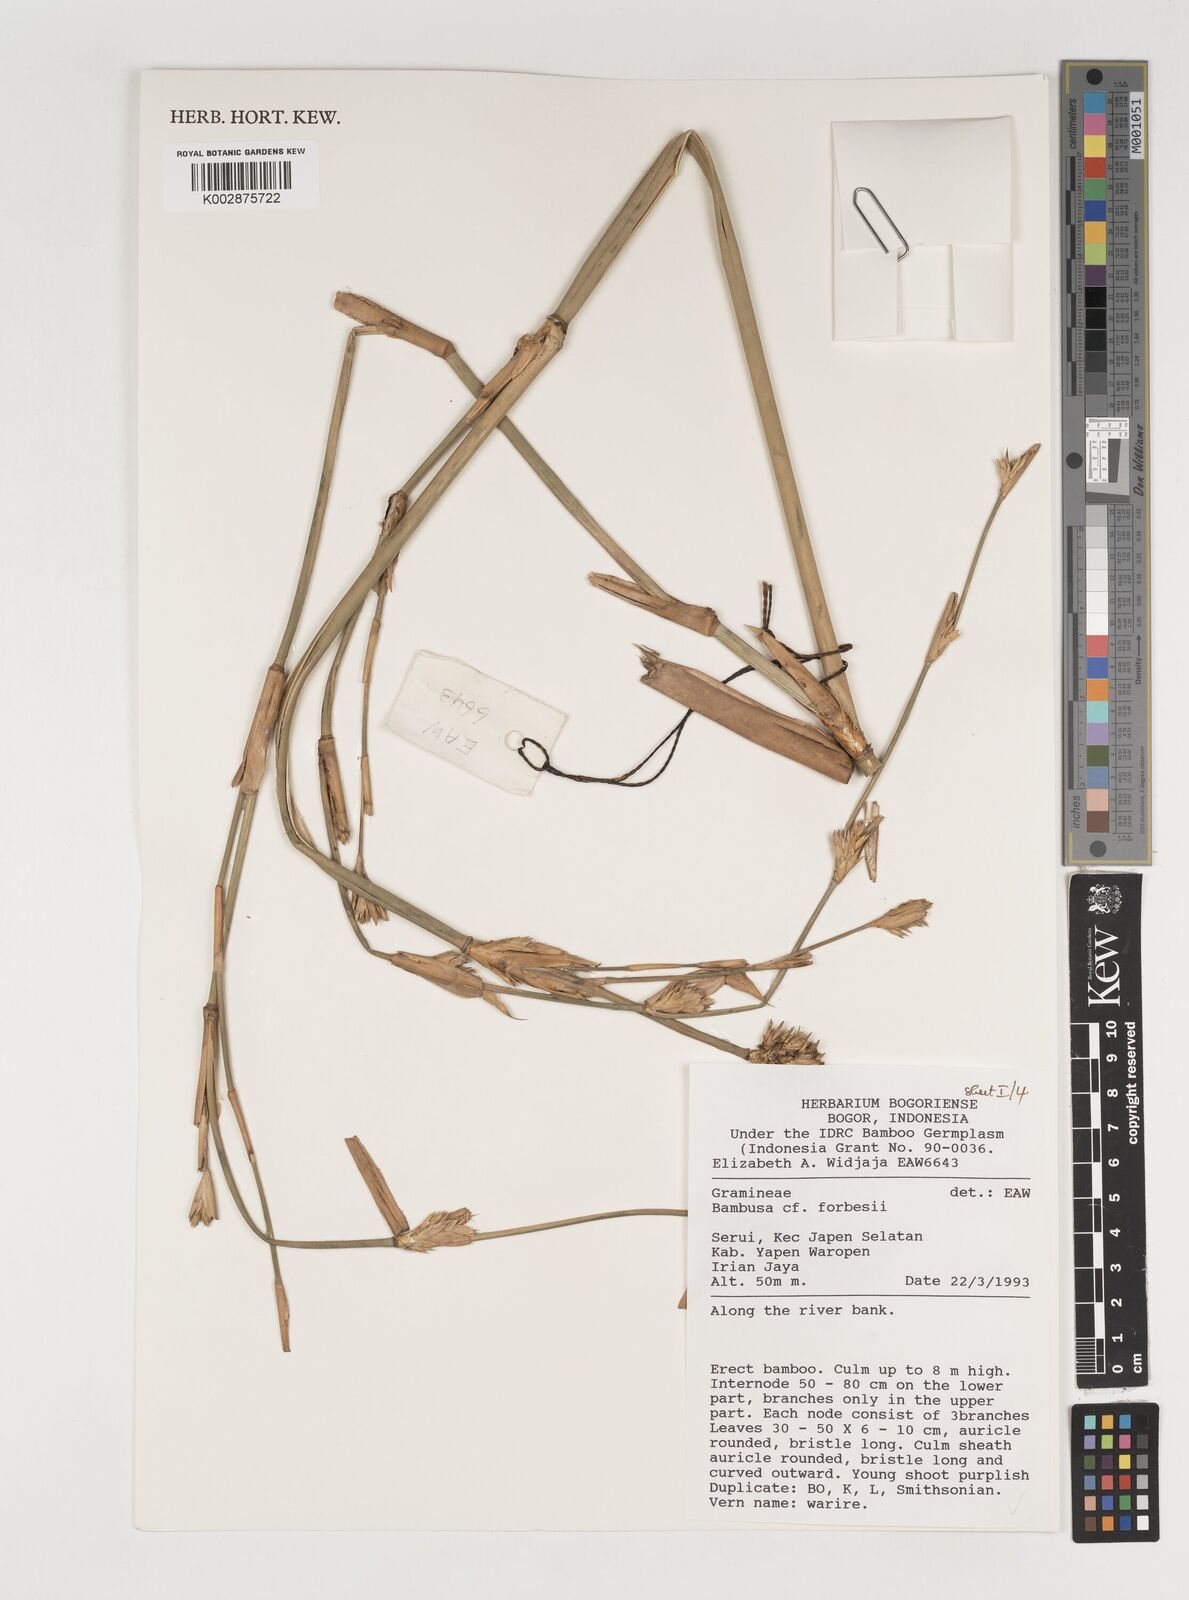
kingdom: Plantae
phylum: Tracheophyta
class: Liliopsida
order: Poales
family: Poaceae
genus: Neololeba
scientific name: Neololeba atra
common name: Cape bamboo
